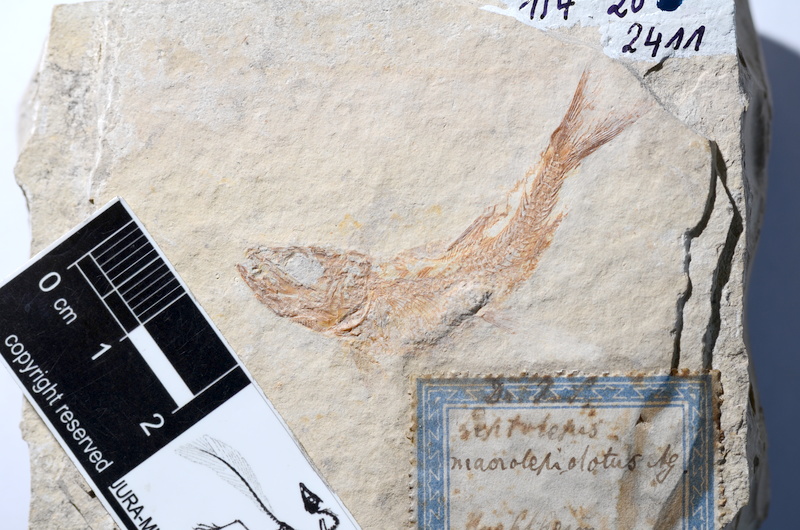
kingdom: Animalia
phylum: Chordata
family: Ascalaboidae
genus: Tharsis
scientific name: Tharsis dubius
